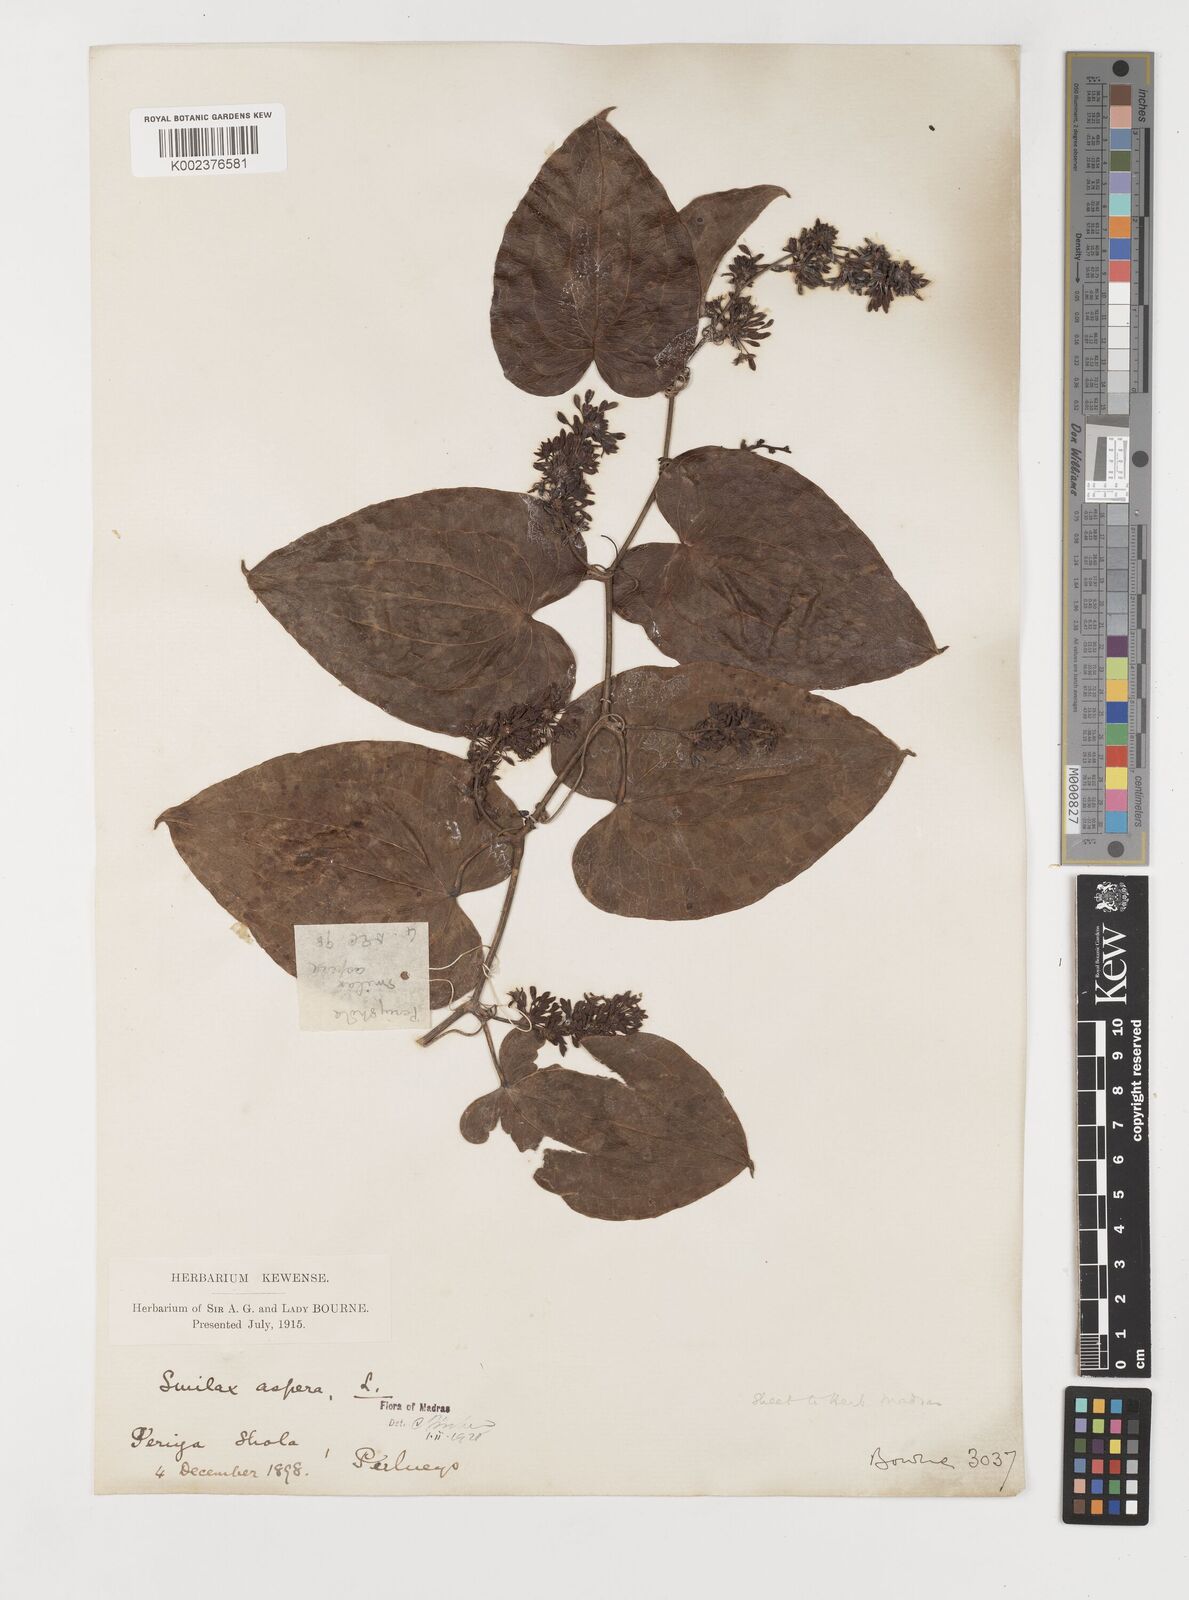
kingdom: Plantae
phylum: Tracheophyta
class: Liliopsida
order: Liliales
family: Smilacaceae
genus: Smilax
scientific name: Smilax aspera
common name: Common smilax
